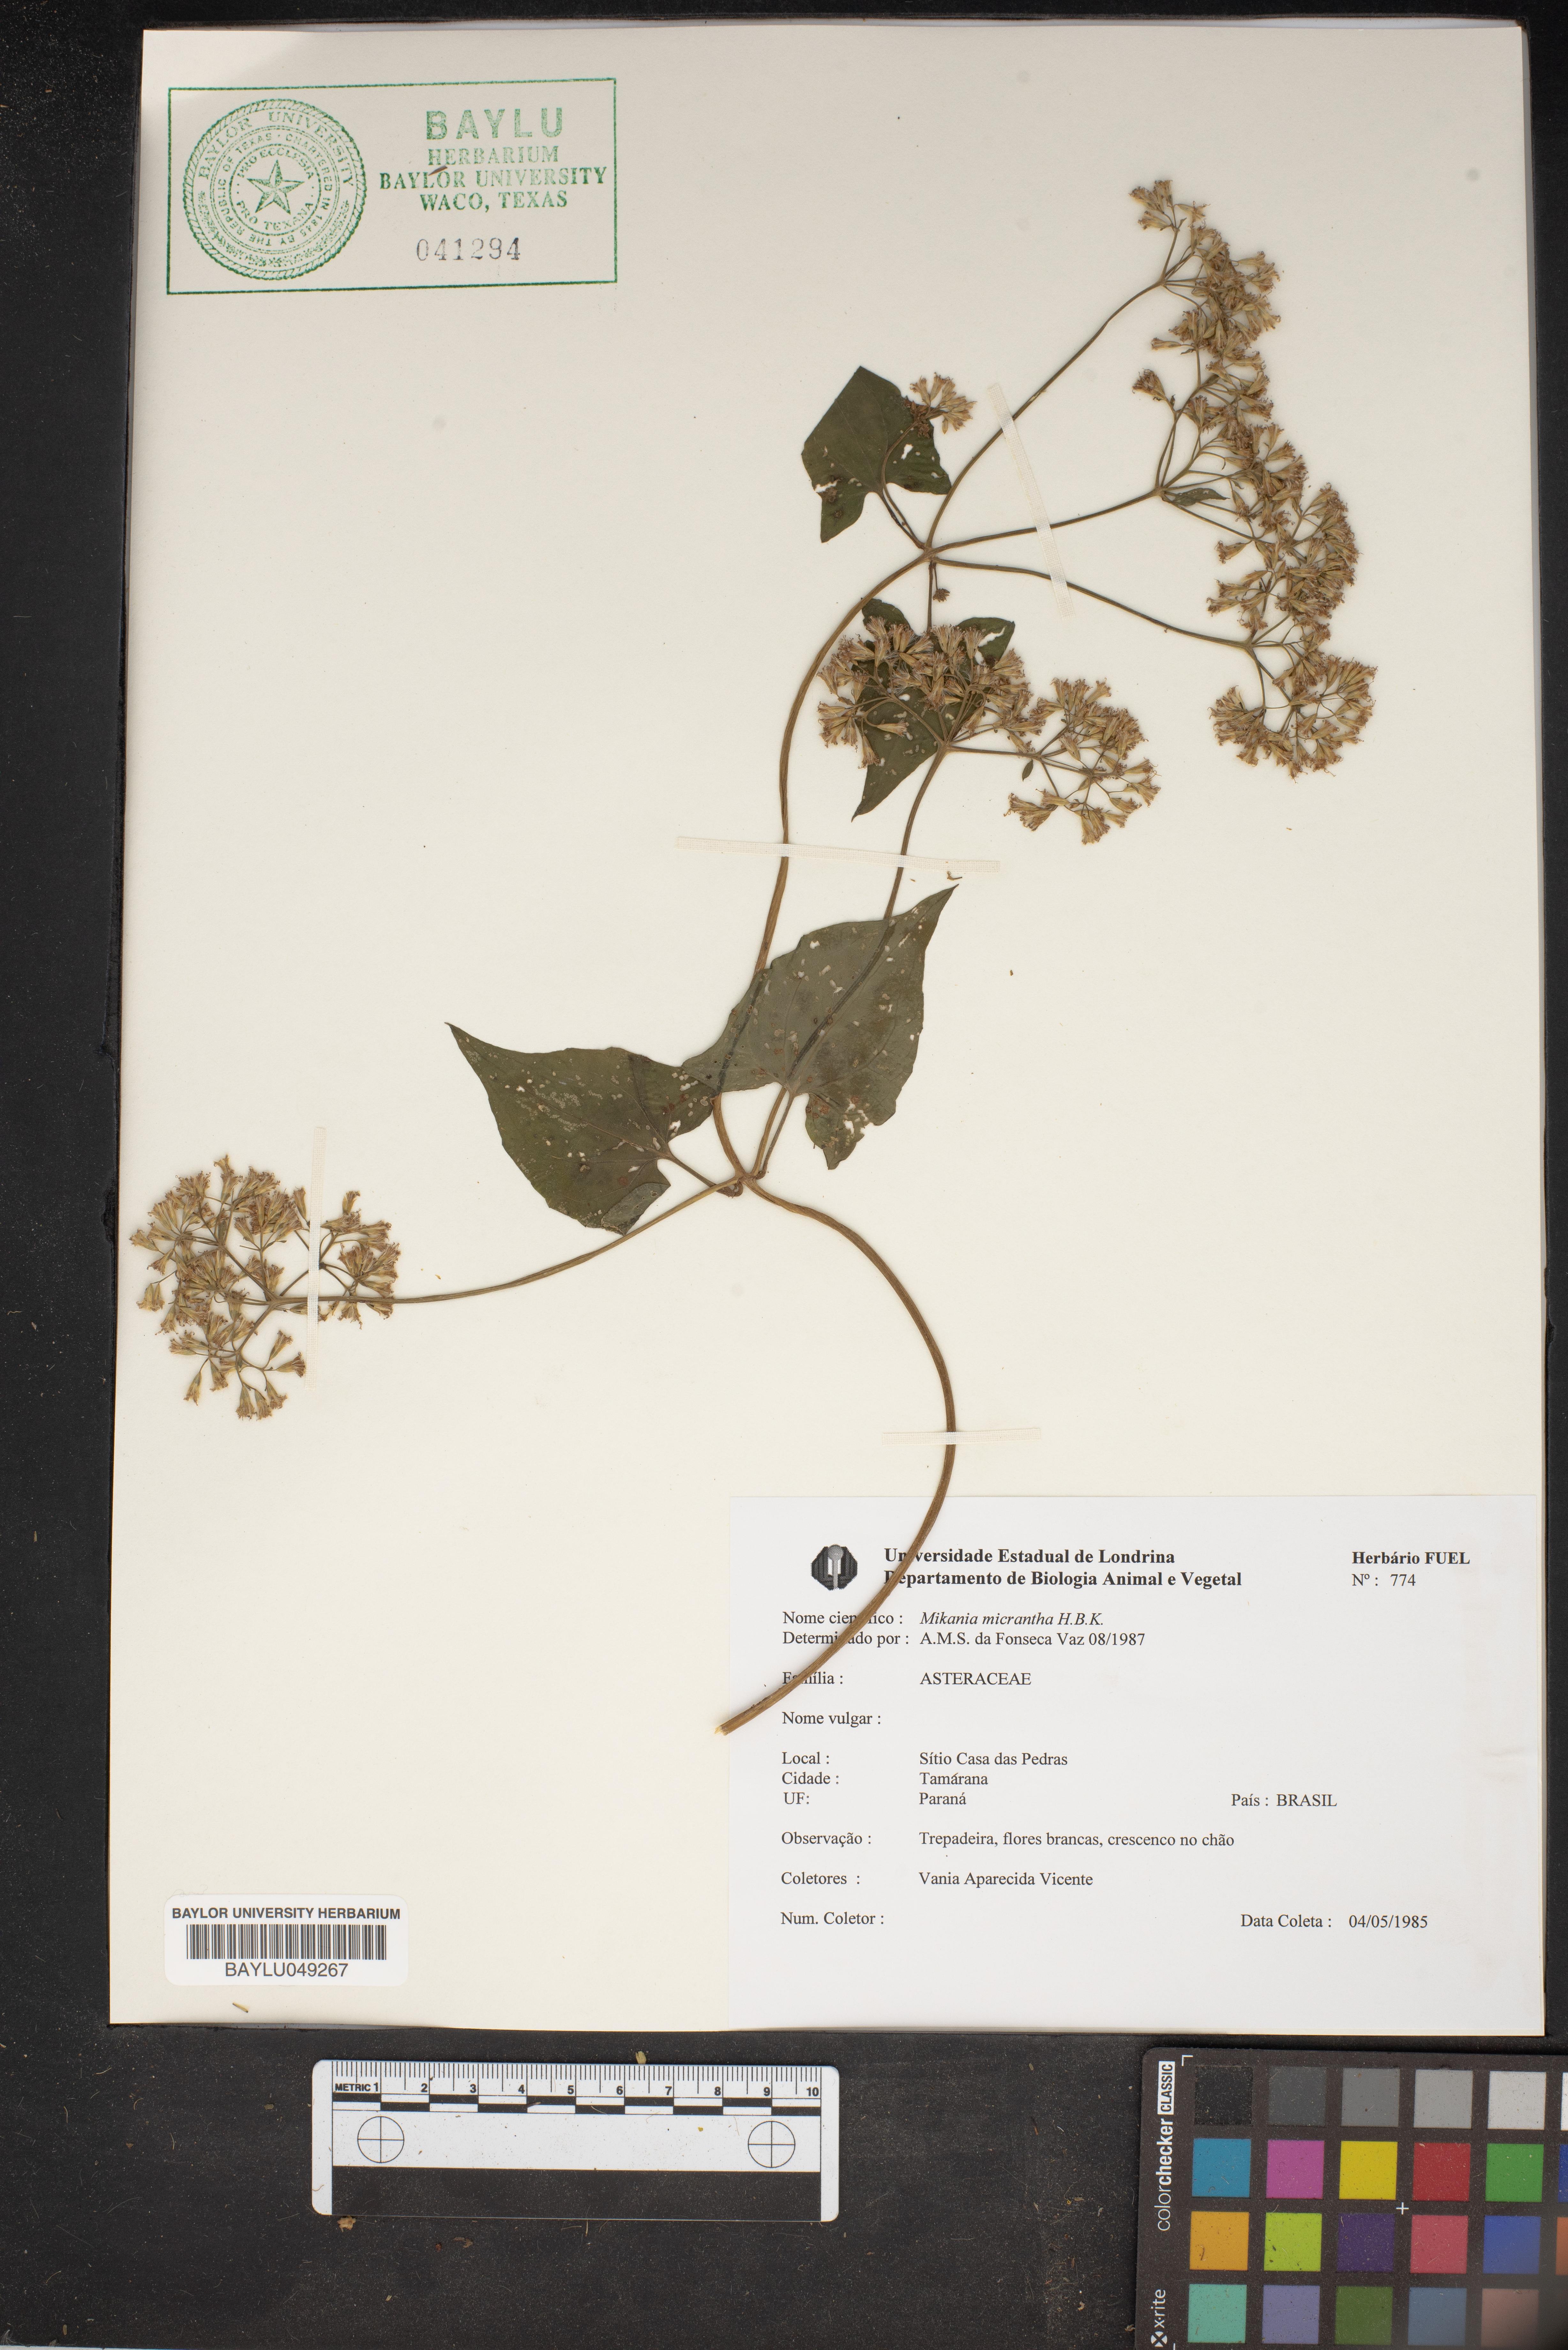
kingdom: Plantae
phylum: Tracheophyta
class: Magnoliopsida
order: Asterales
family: Asteraceae
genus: Mikania
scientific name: Mikania micrantha
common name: Mile-a-minute
